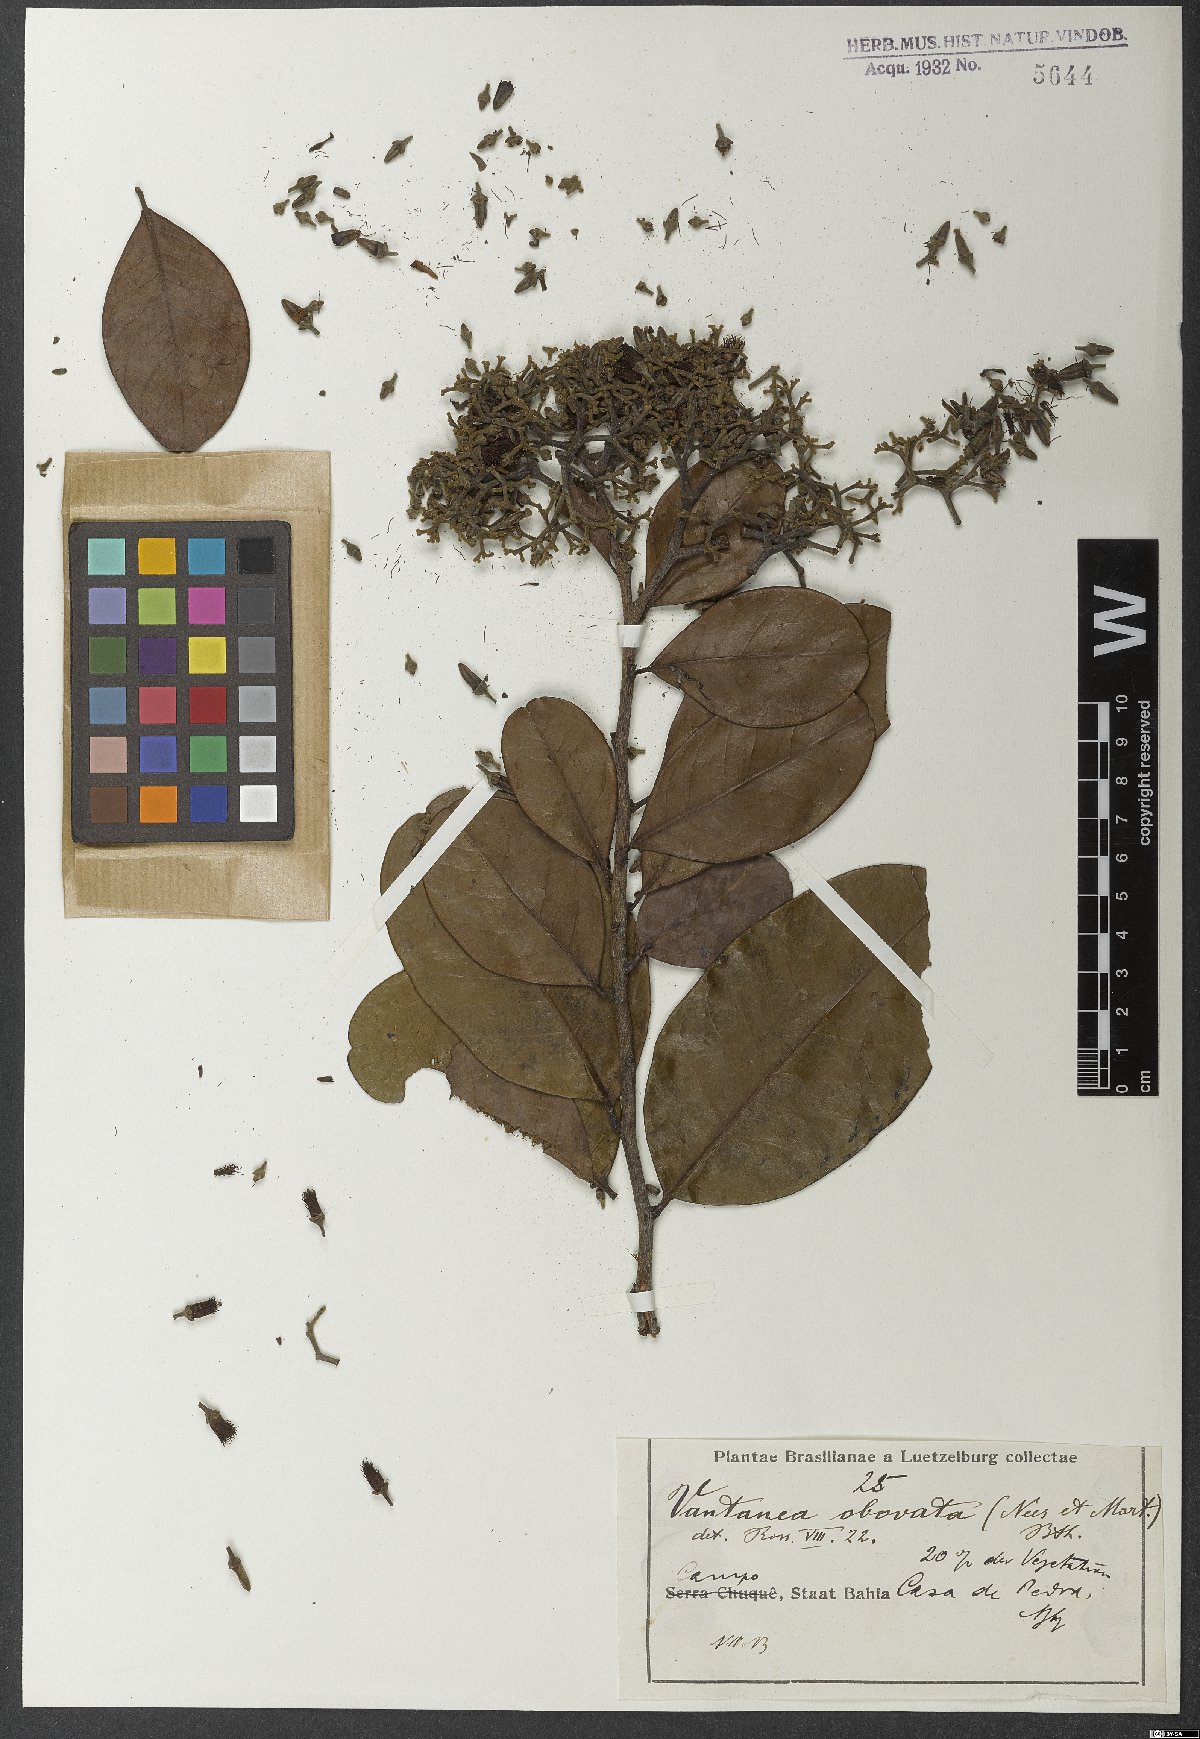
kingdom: Plantae
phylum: Tracheophyta
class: Magnoliopsida
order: Malpighiales
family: Humiriaceae
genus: Vantanea
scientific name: Vantanea obovata
